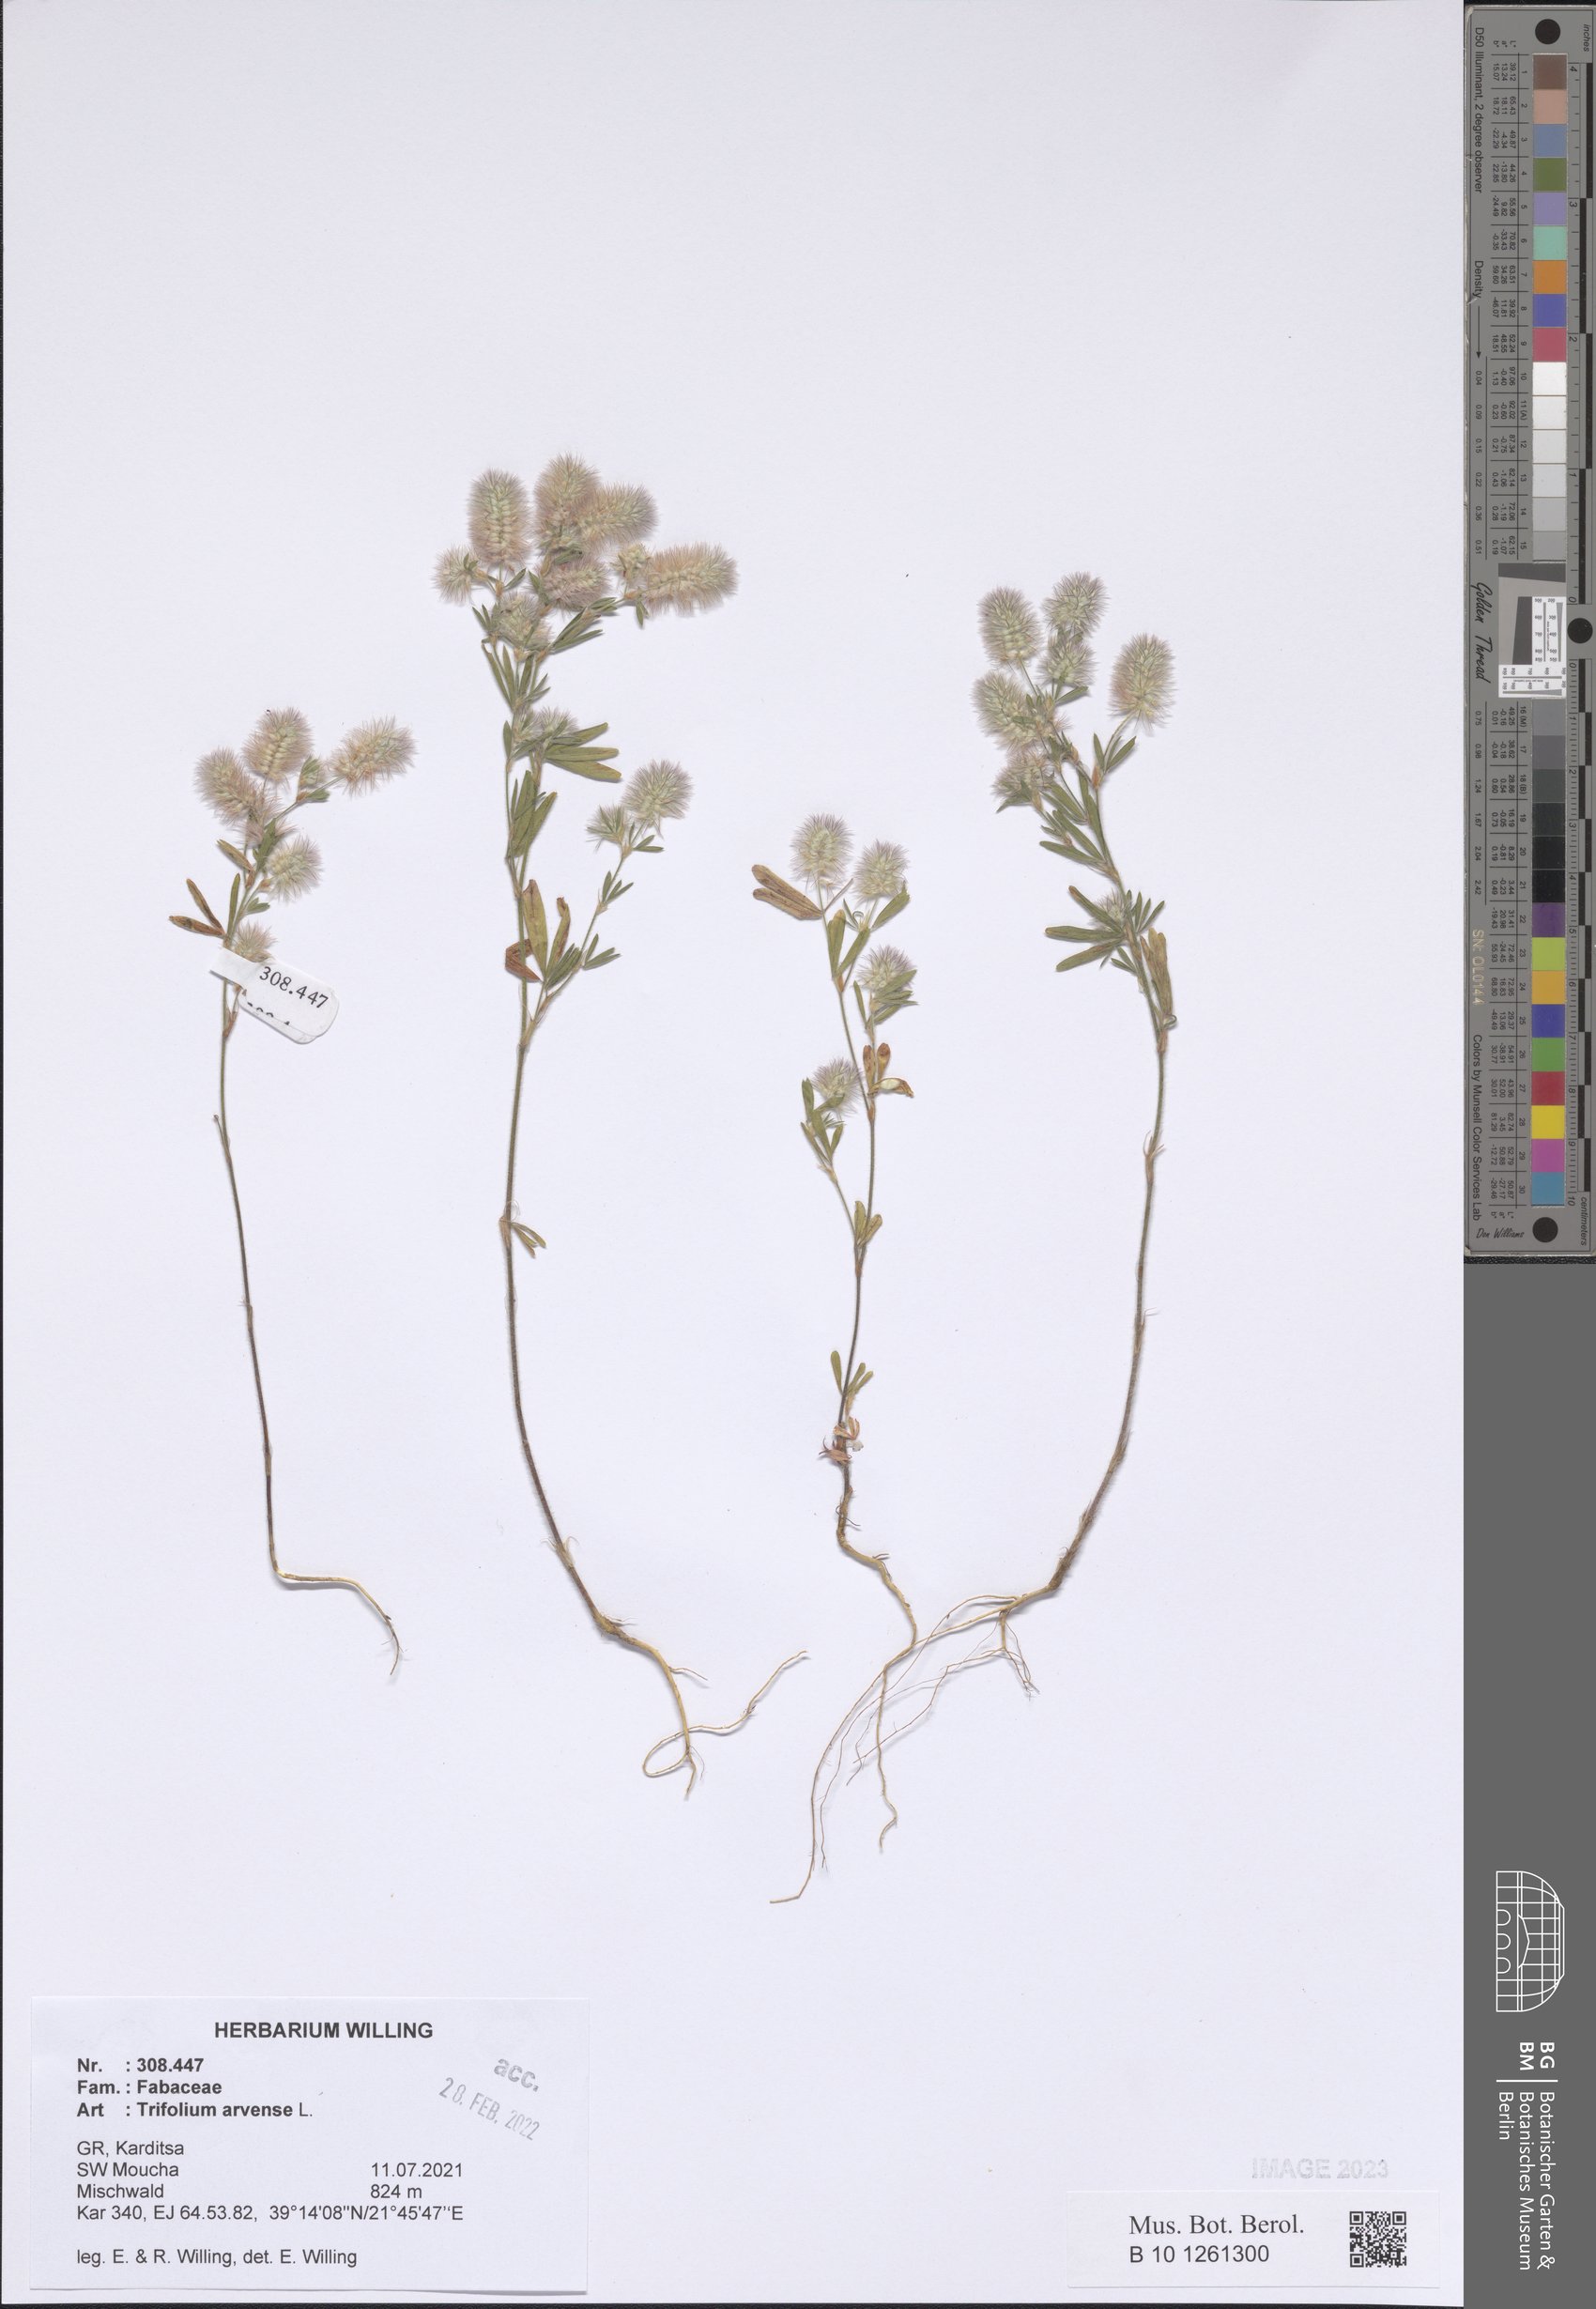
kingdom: Plantae
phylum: Tracheophyta
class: Magnoliopsida
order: Fabales
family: Fabaceae
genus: Trifolium
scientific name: Trifolium arvense
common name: Hare's-foot clover
